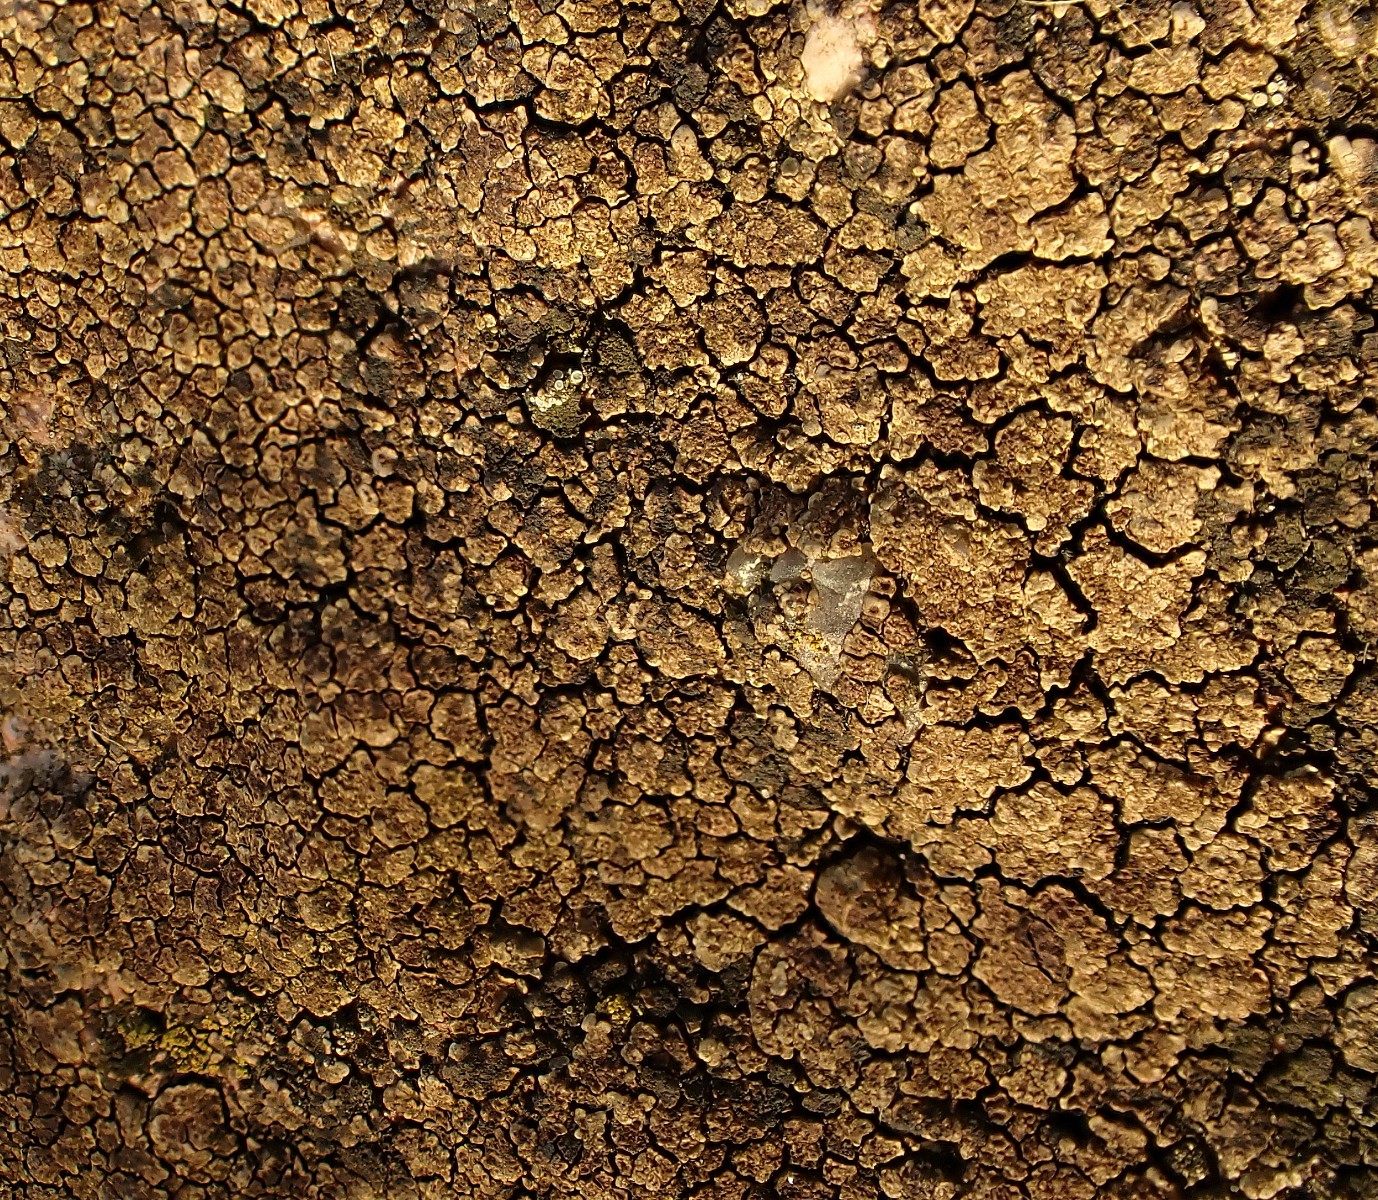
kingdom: Fungi
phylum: Ascomycota
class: Lecanoromycetes
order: Acarosporales
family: Acarosporaceae
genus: Acarospora
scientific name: Acarospora fuscata
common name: brun småsporelav
